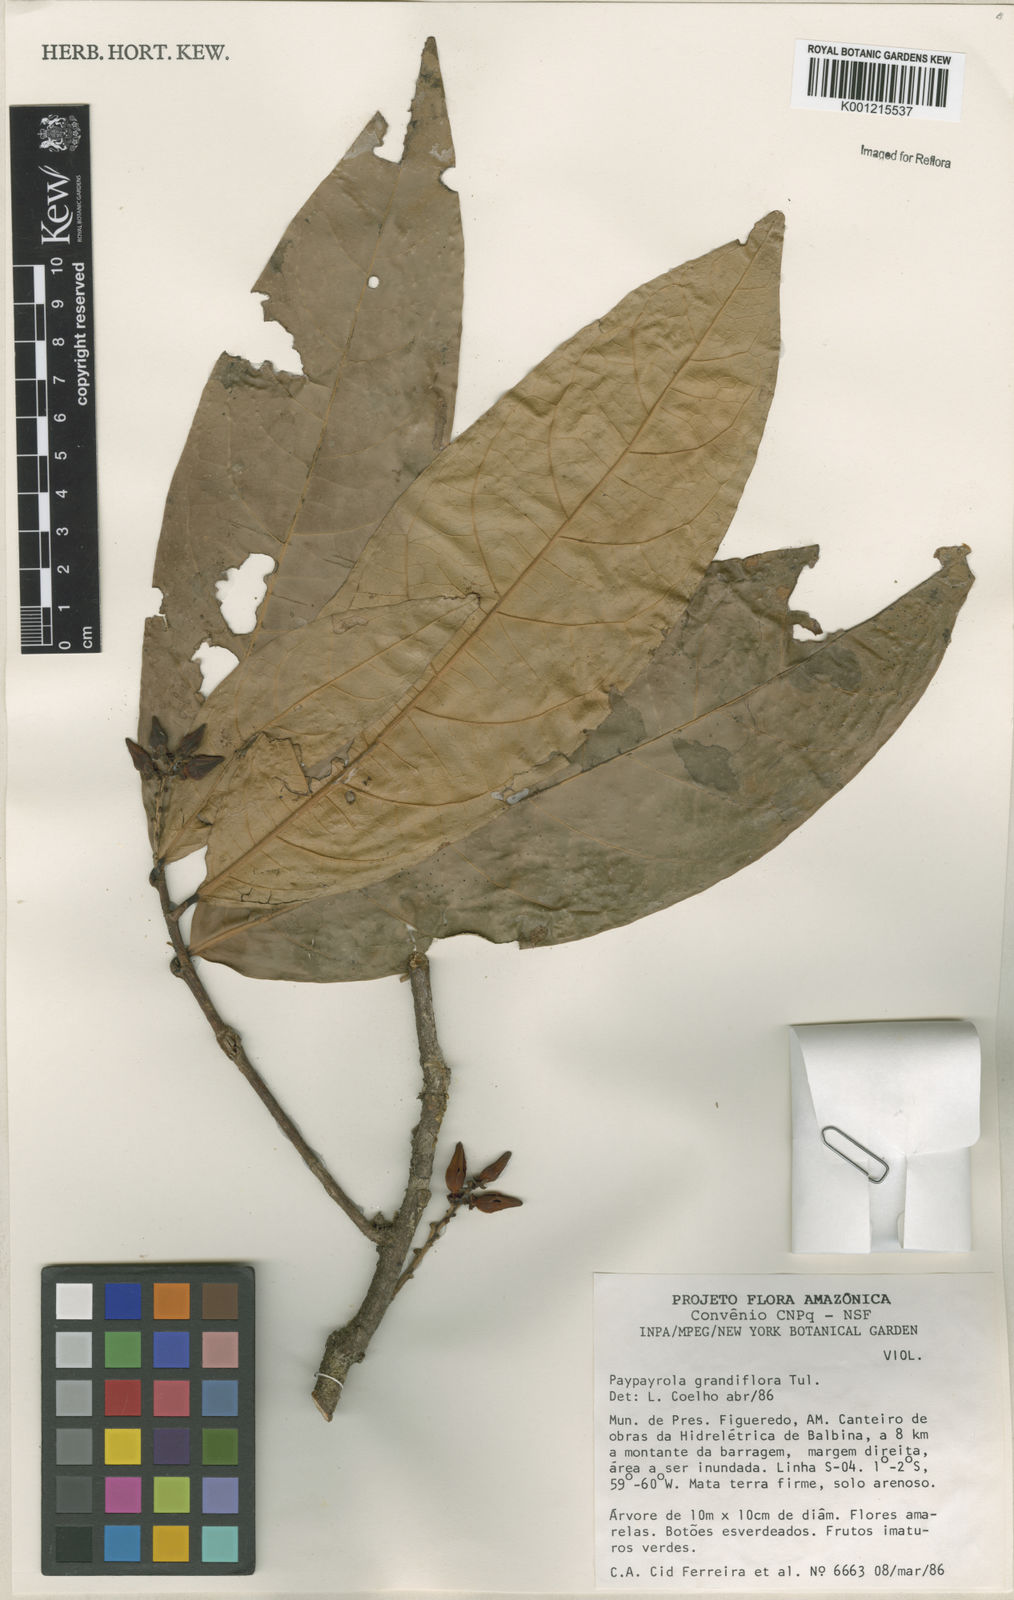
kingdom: Plantae
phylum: Tracheophyta
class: Magnoliopsida
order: Malpighiales
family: Violaceae
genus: Paypayrola
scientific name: Paypayrola grandiflora
